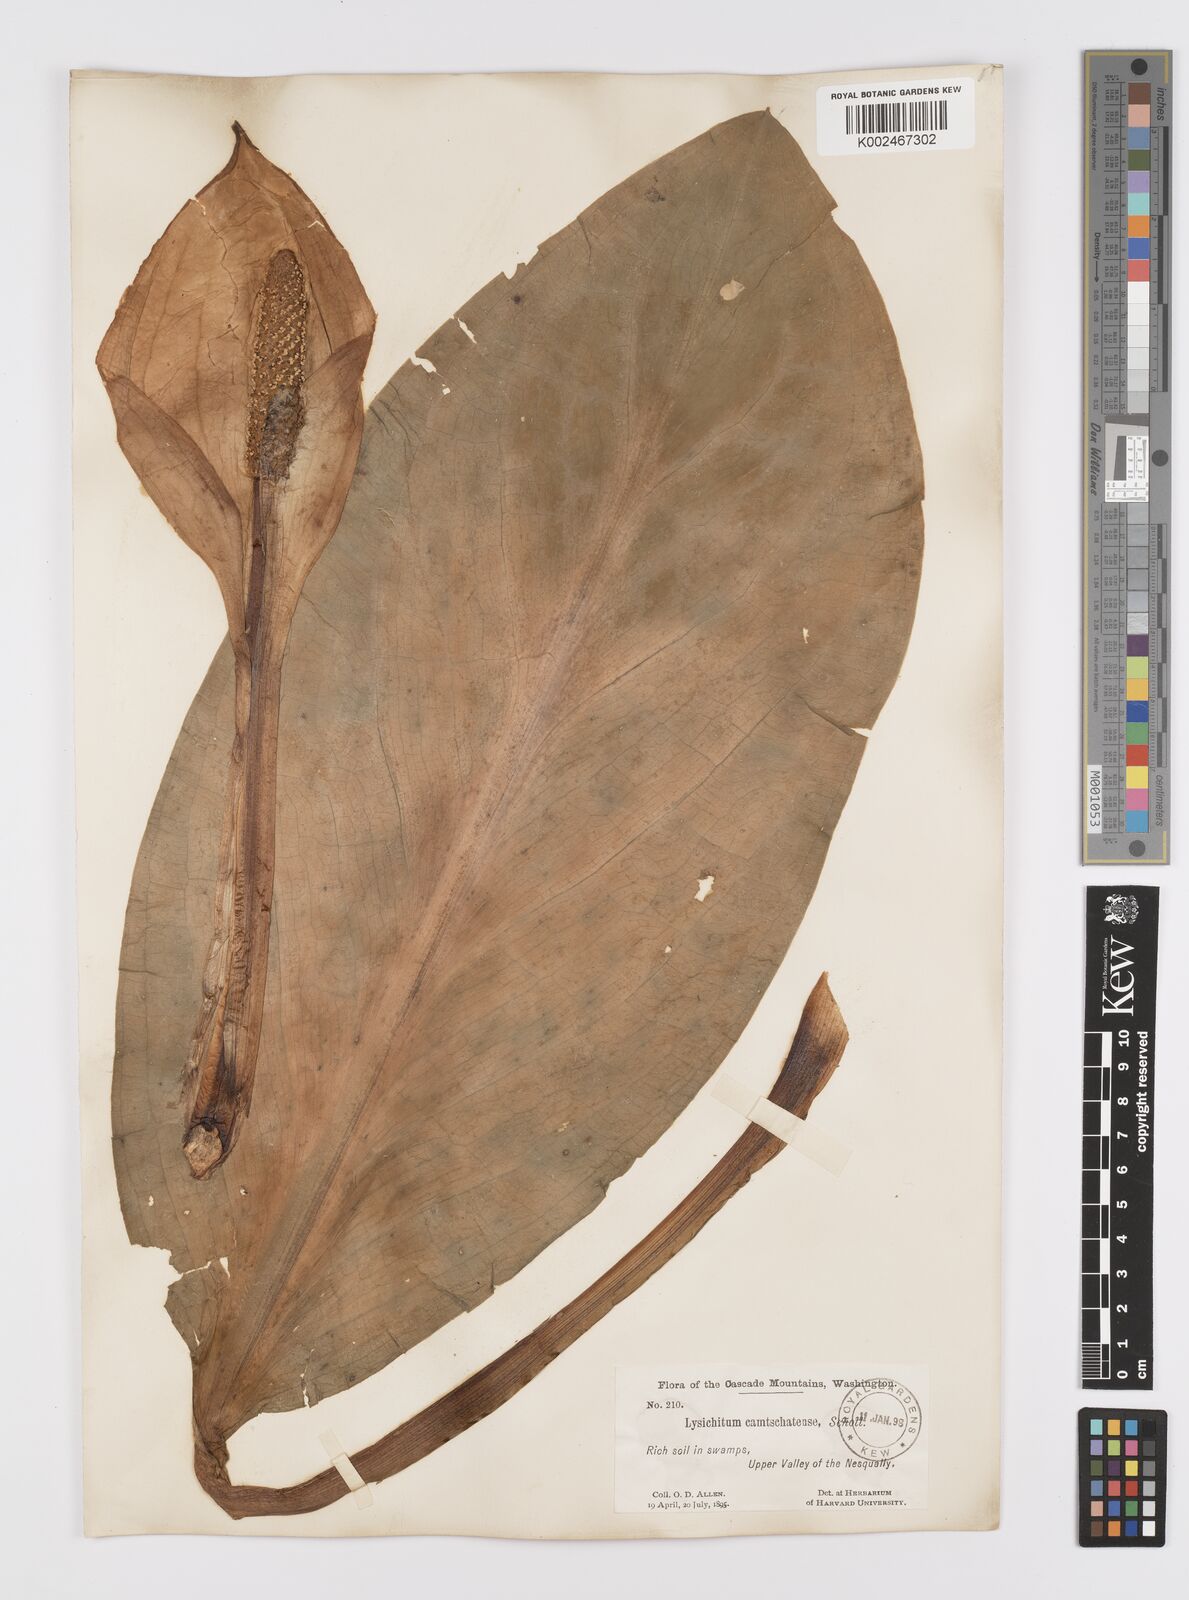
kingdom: Plantae
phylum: Tracheophyta
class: Liliopsida
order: Alismatales
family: Araceae
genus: Lysichiton
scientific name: Lysichiton americanus
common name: American skunk cabbage
